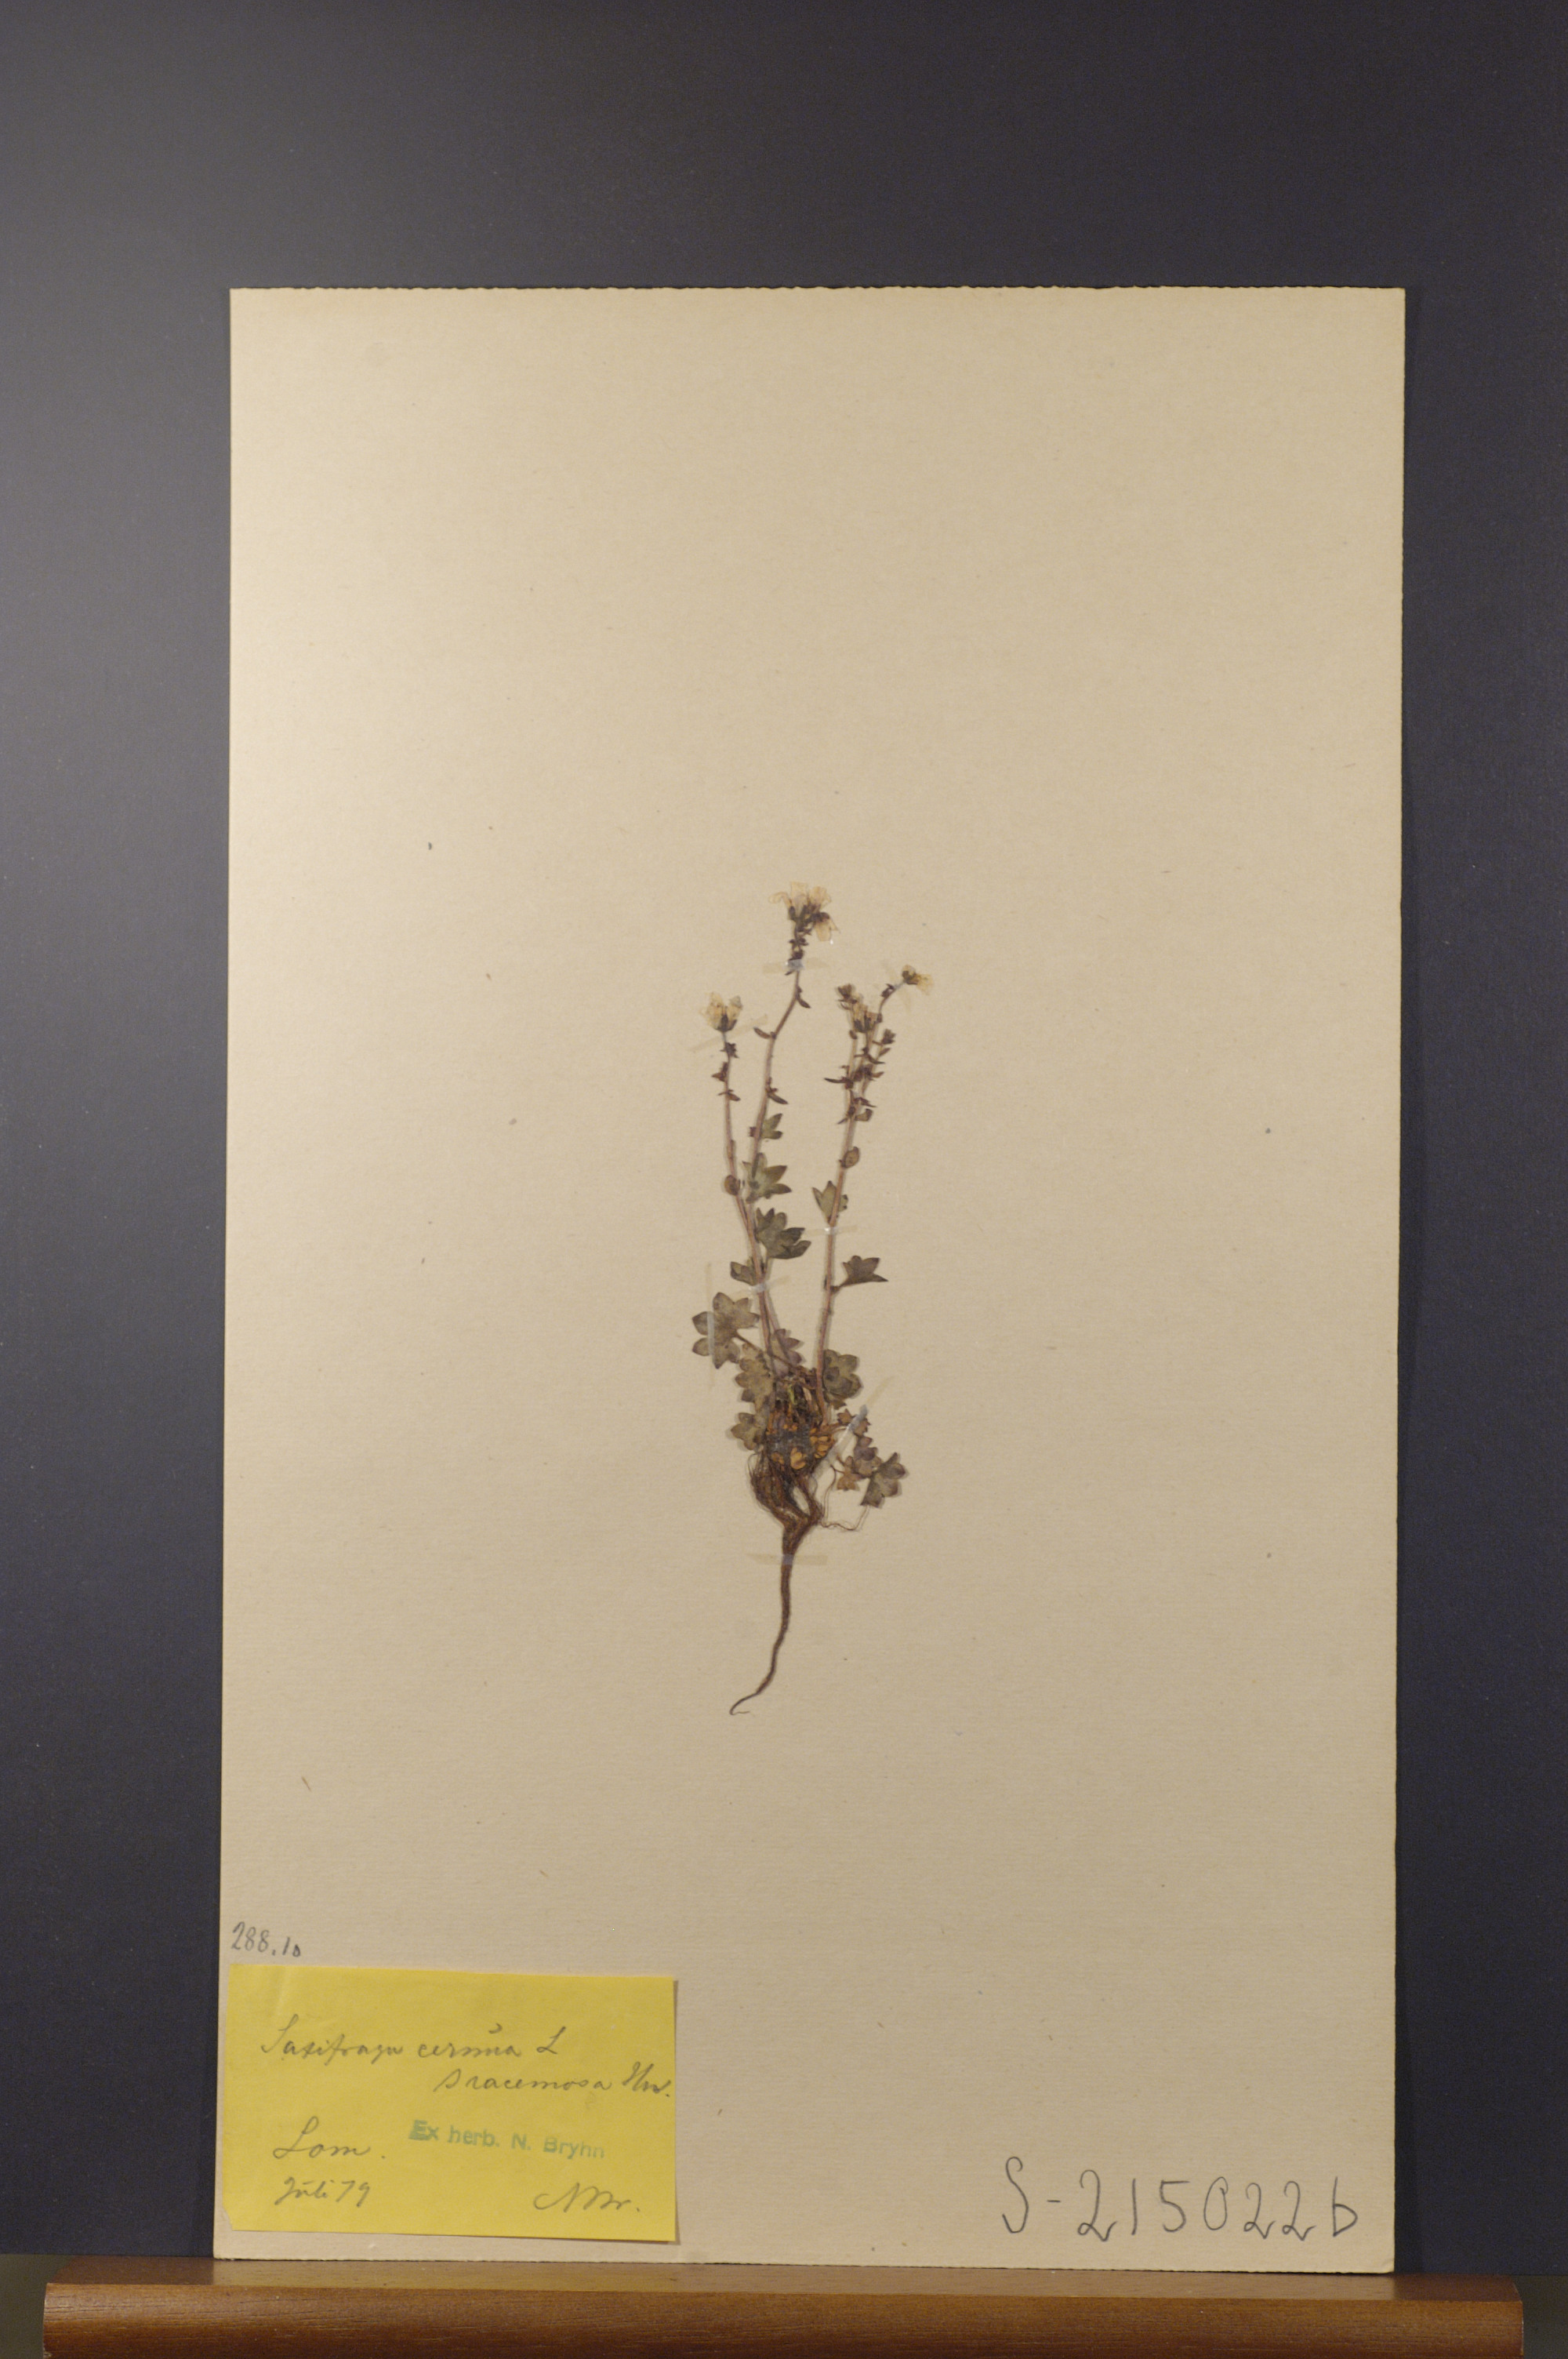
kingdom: Plantae
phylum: Tracheophyta
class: Magnoliopsida
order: Saxifragales
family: Saxifragaceae
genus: Saxifraga
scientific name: Saxifraga cernua
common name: Drooping saxifrage
